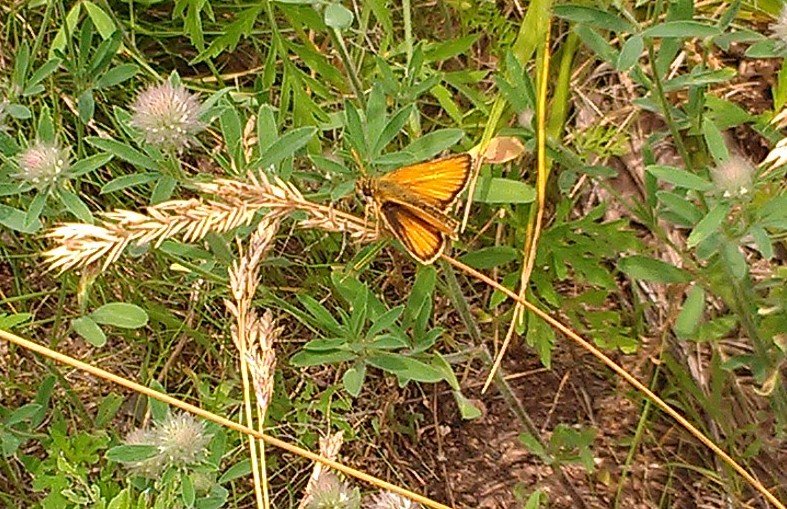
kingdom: Animalia
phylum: Arthropoda
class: Insecta
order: Lepidoptera
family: Hesperiidae
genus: Thymelicus
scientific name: Thymelicus lineola
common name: European Skipper
